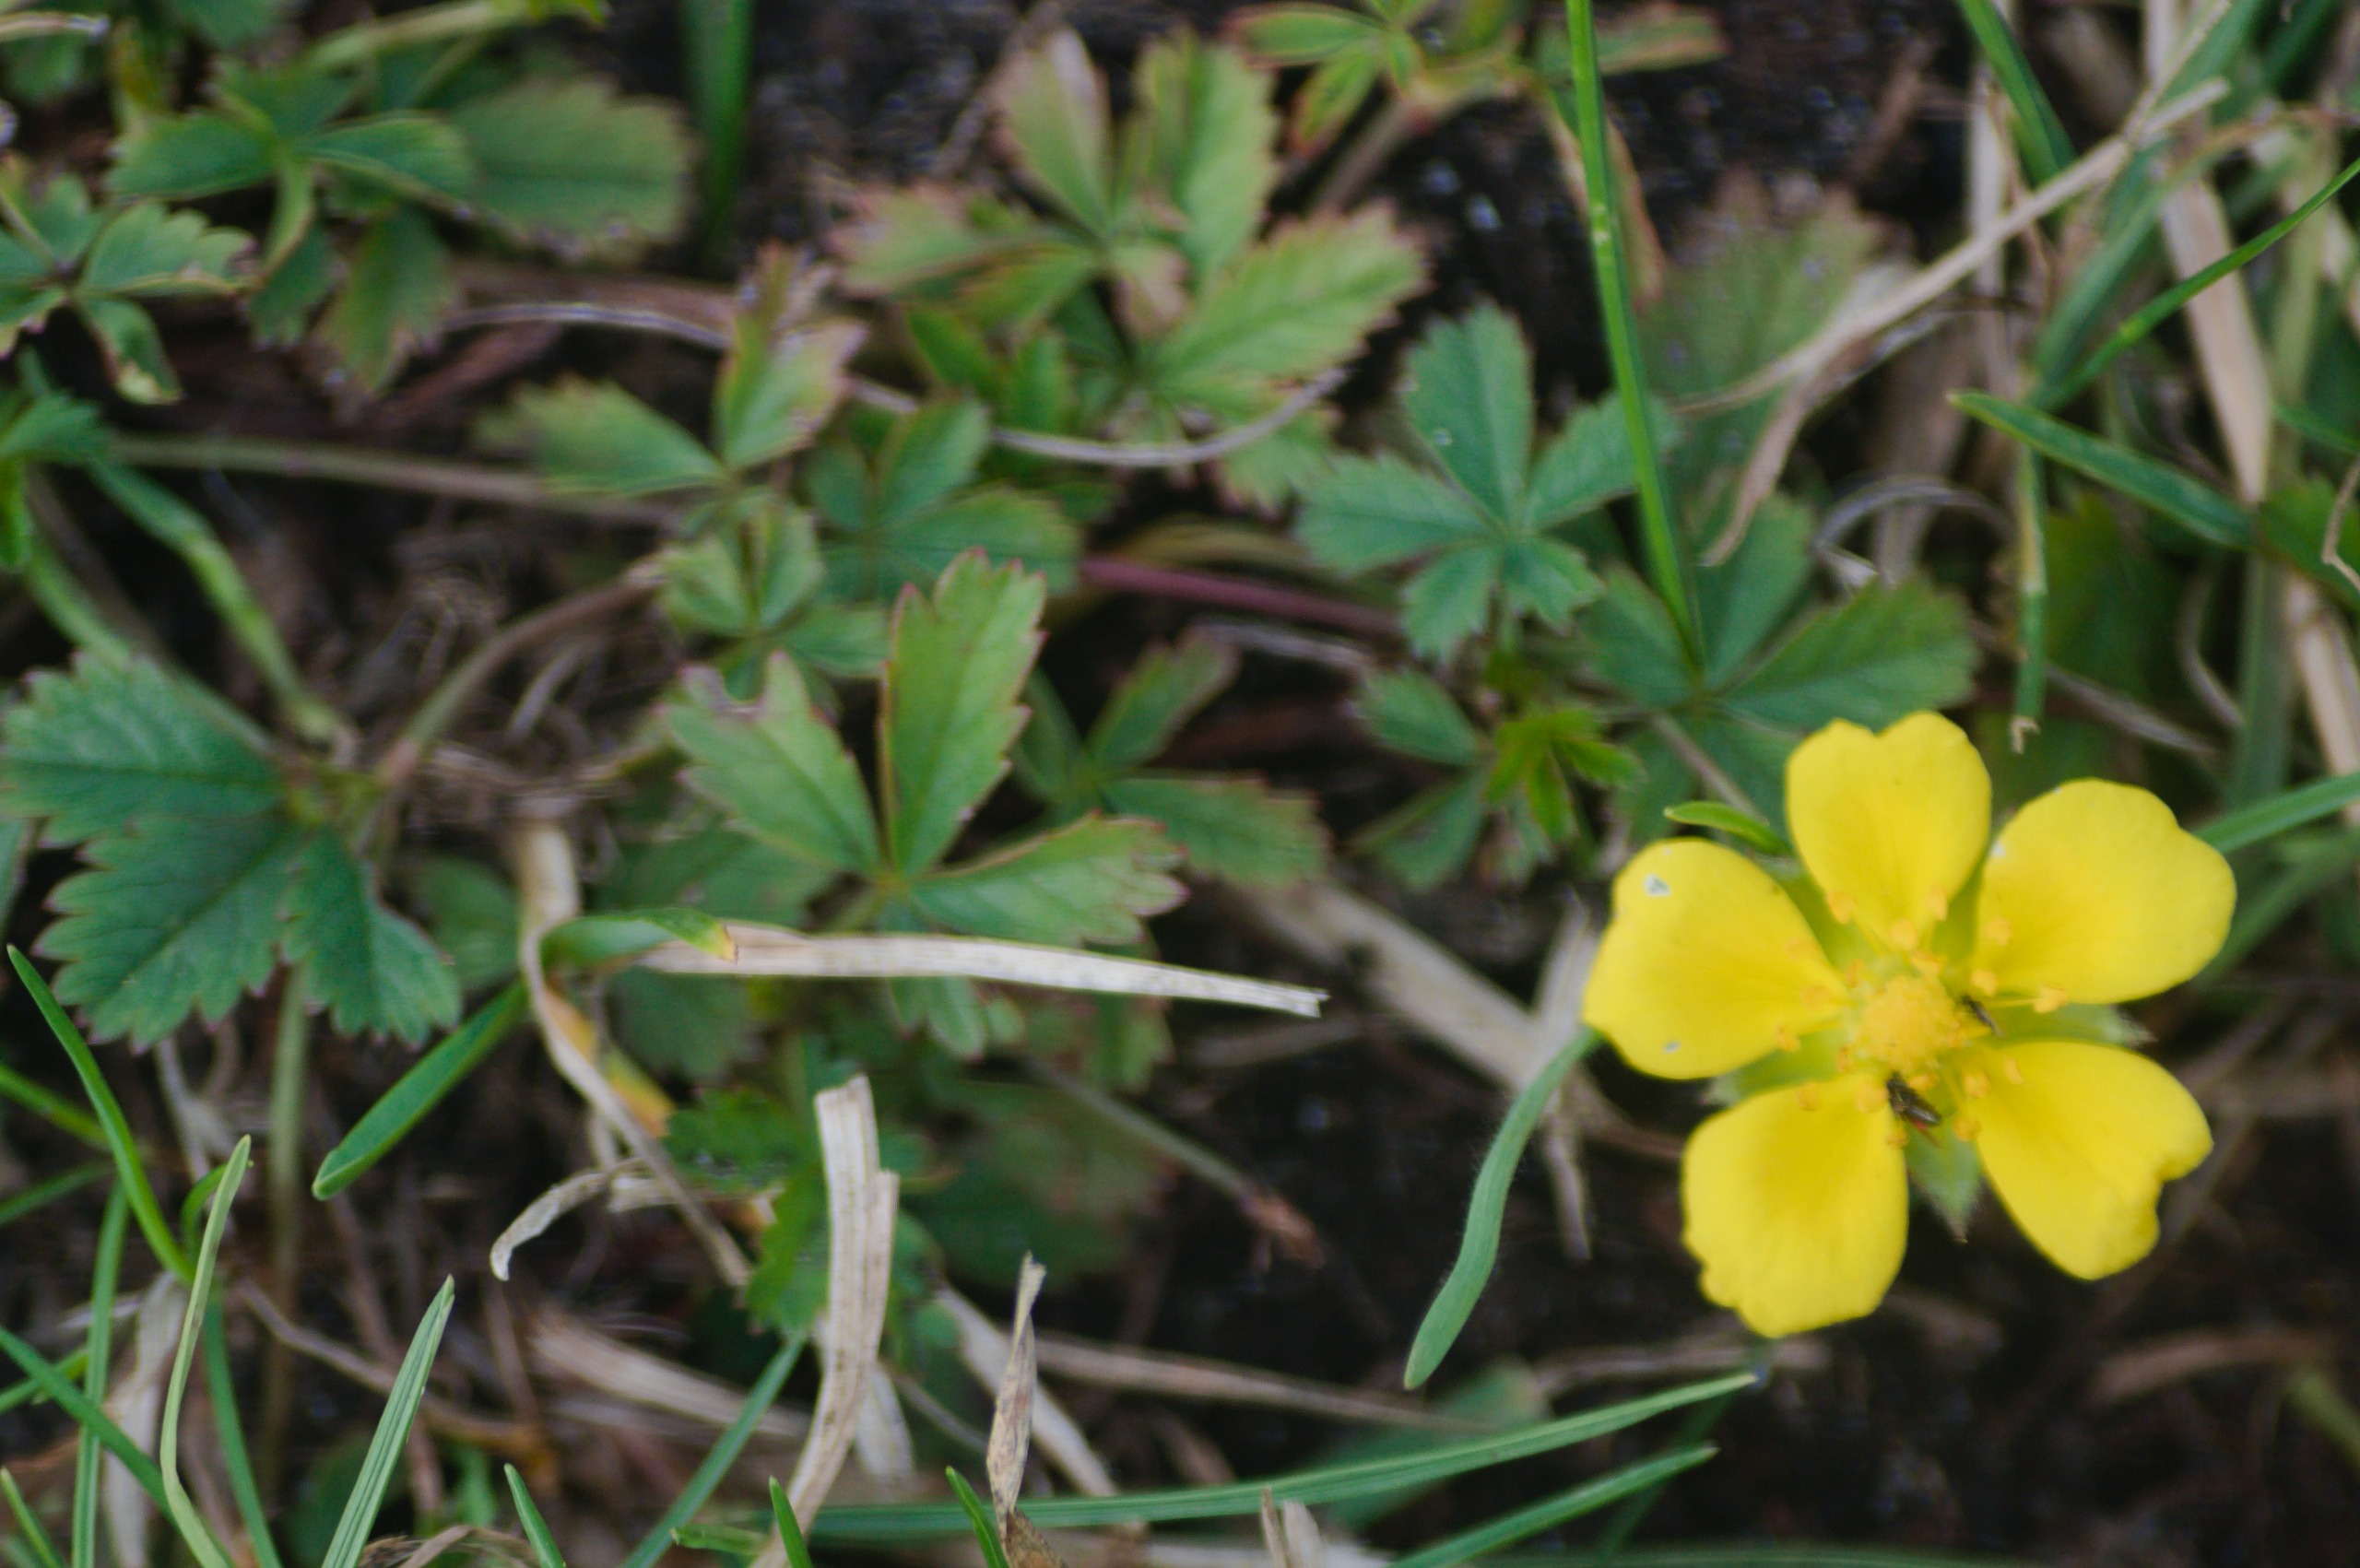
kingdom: Plantae
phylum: Tracheophyta
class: Magnoliopsida
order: Rosales
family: Rosaceae
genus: Potentilla
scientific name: Potentilla reptans
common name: Krybende potentil
